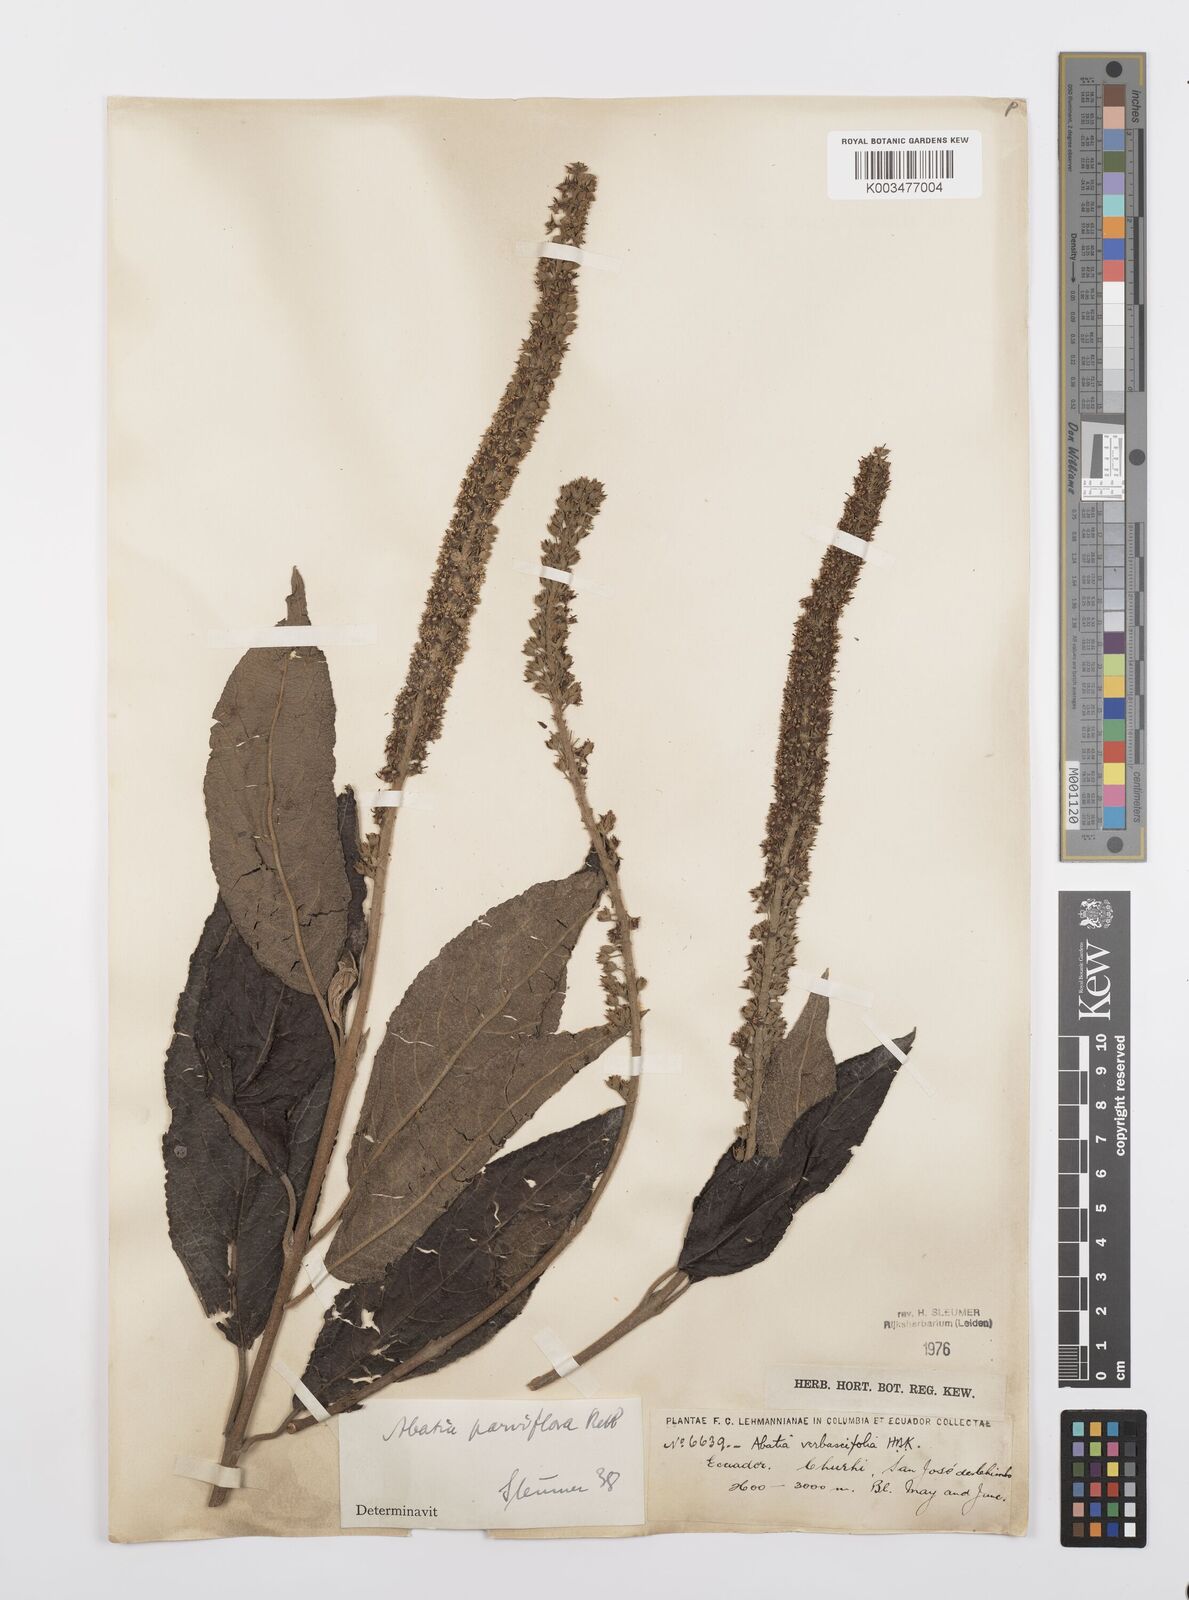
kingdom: Plantae
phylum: Tracheophyta
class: Magnoliopsida
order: Malpighiales
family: Salicaceae
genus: Abatia
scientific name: Abatia parviflora
